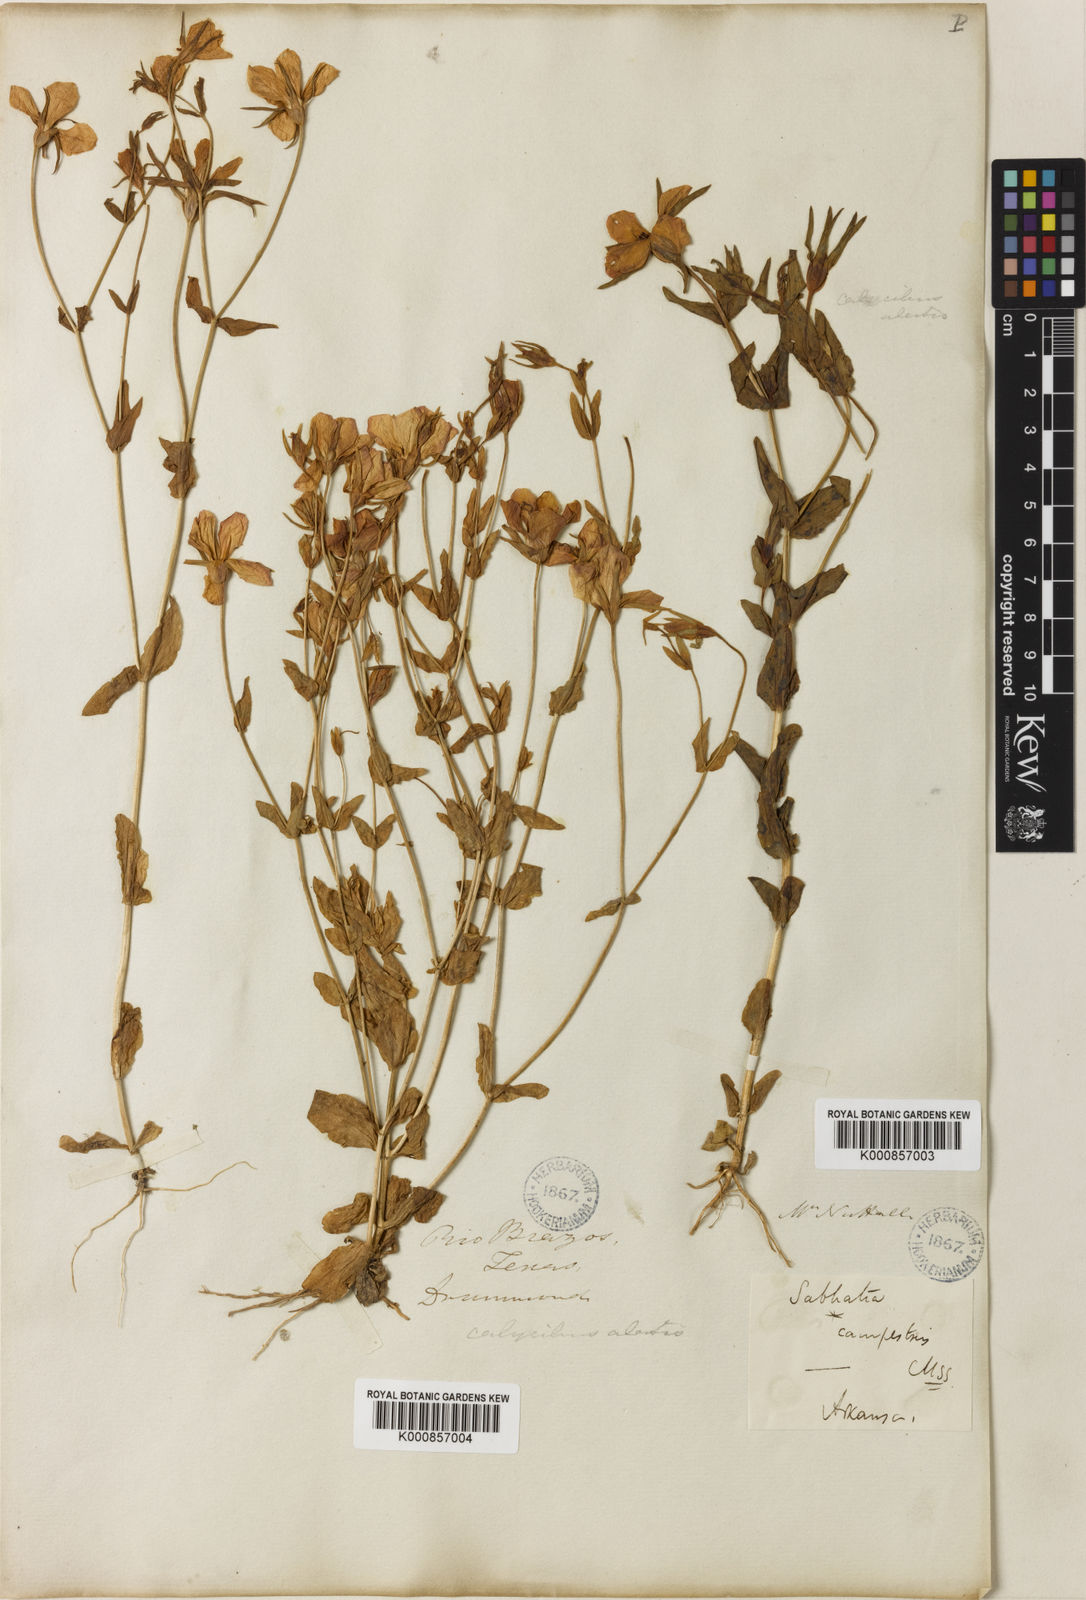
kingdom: Plantae
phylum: Tracheophyta
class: Magnoliopsida
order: Gentianales
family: Gentianaceae
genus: Sabatia
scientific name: Sabatia campestris
